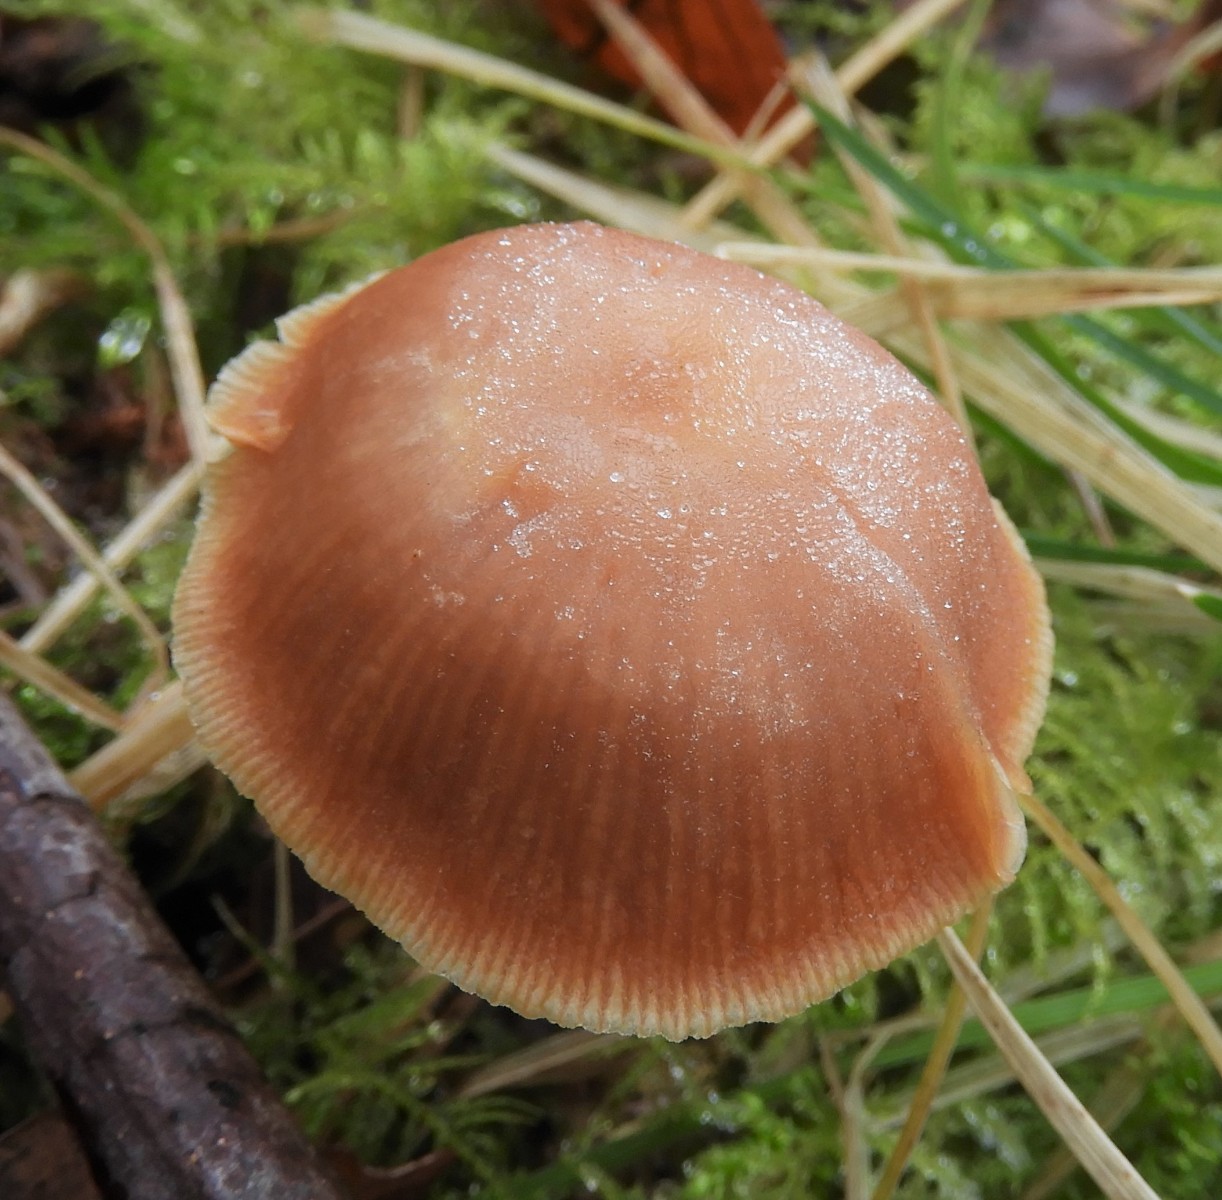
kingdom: Fungi
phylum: Basidiomycota
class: Agaricomycetes
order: Agaricales
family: Tubariaceae
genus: Tubaria
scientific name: Tubaria furfuracea
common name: kliddet fnughat
